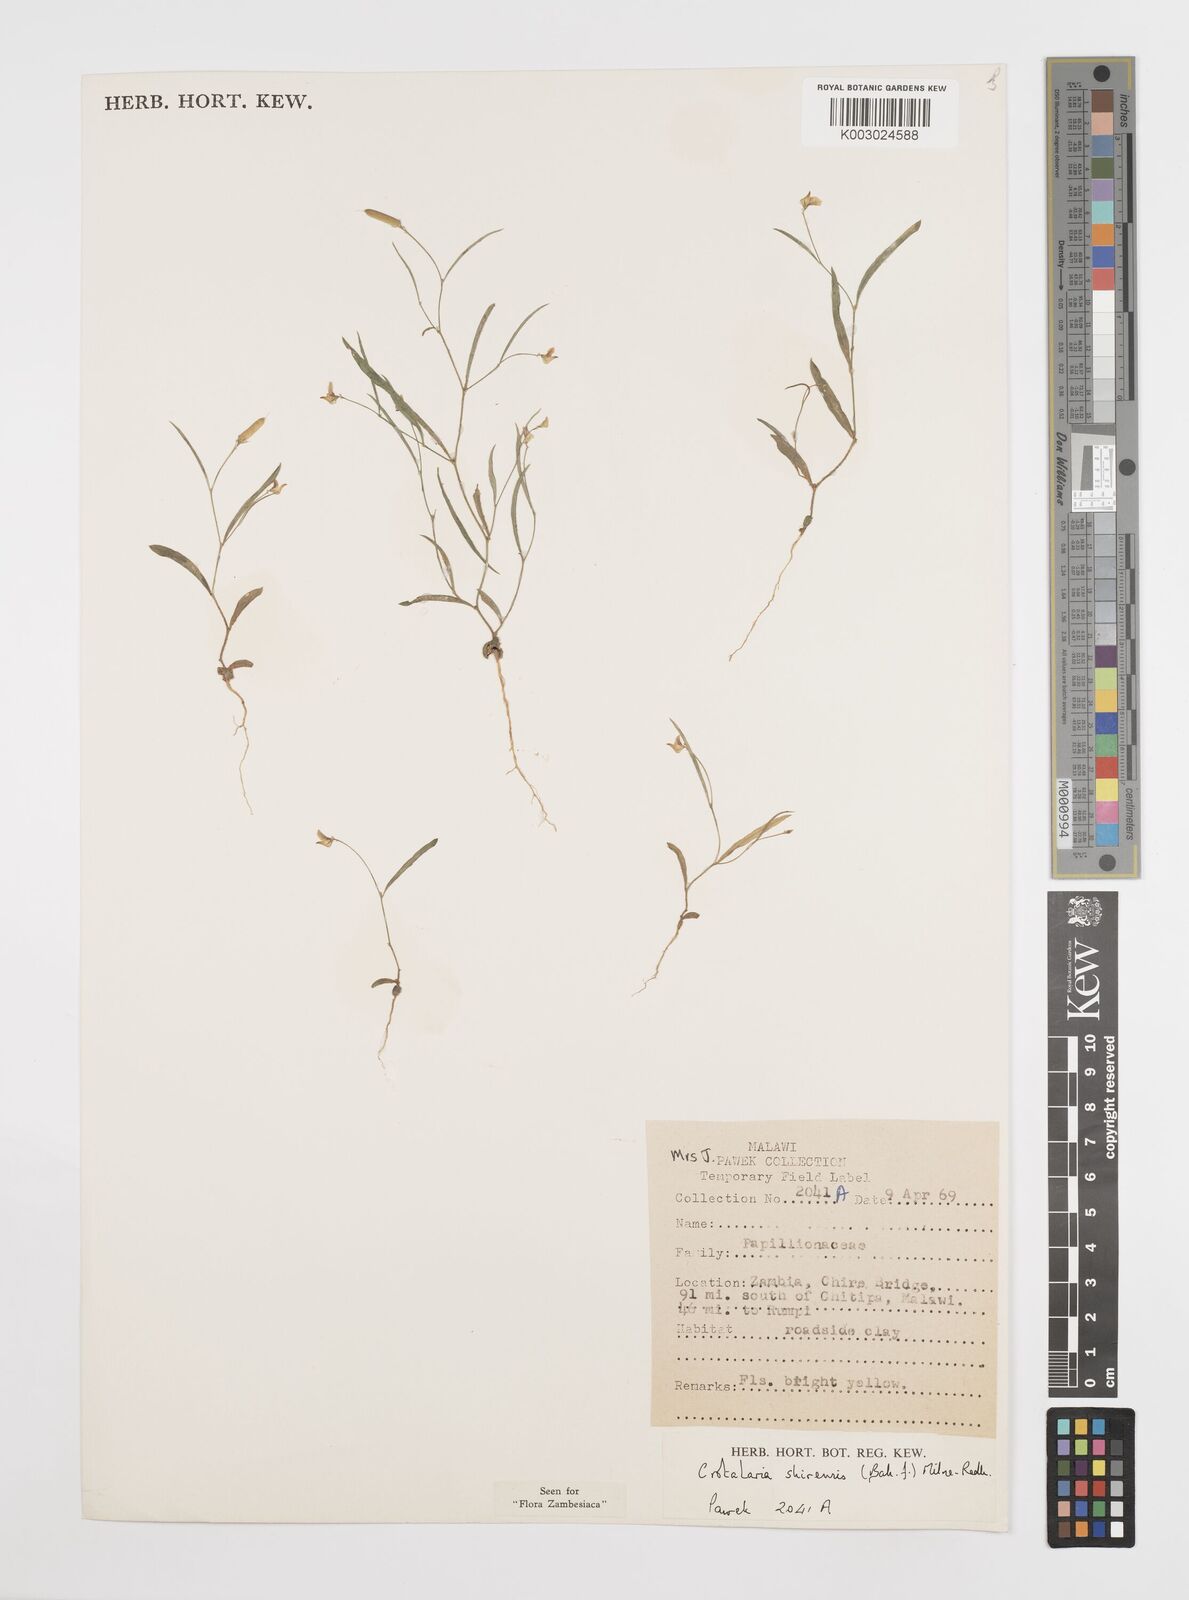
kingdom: Plantae
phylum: Tracheophyta
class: Magnoliopsida
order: Fabales
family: Fabaceae
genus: Crotalaria
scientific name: Crotalaria shirensis
